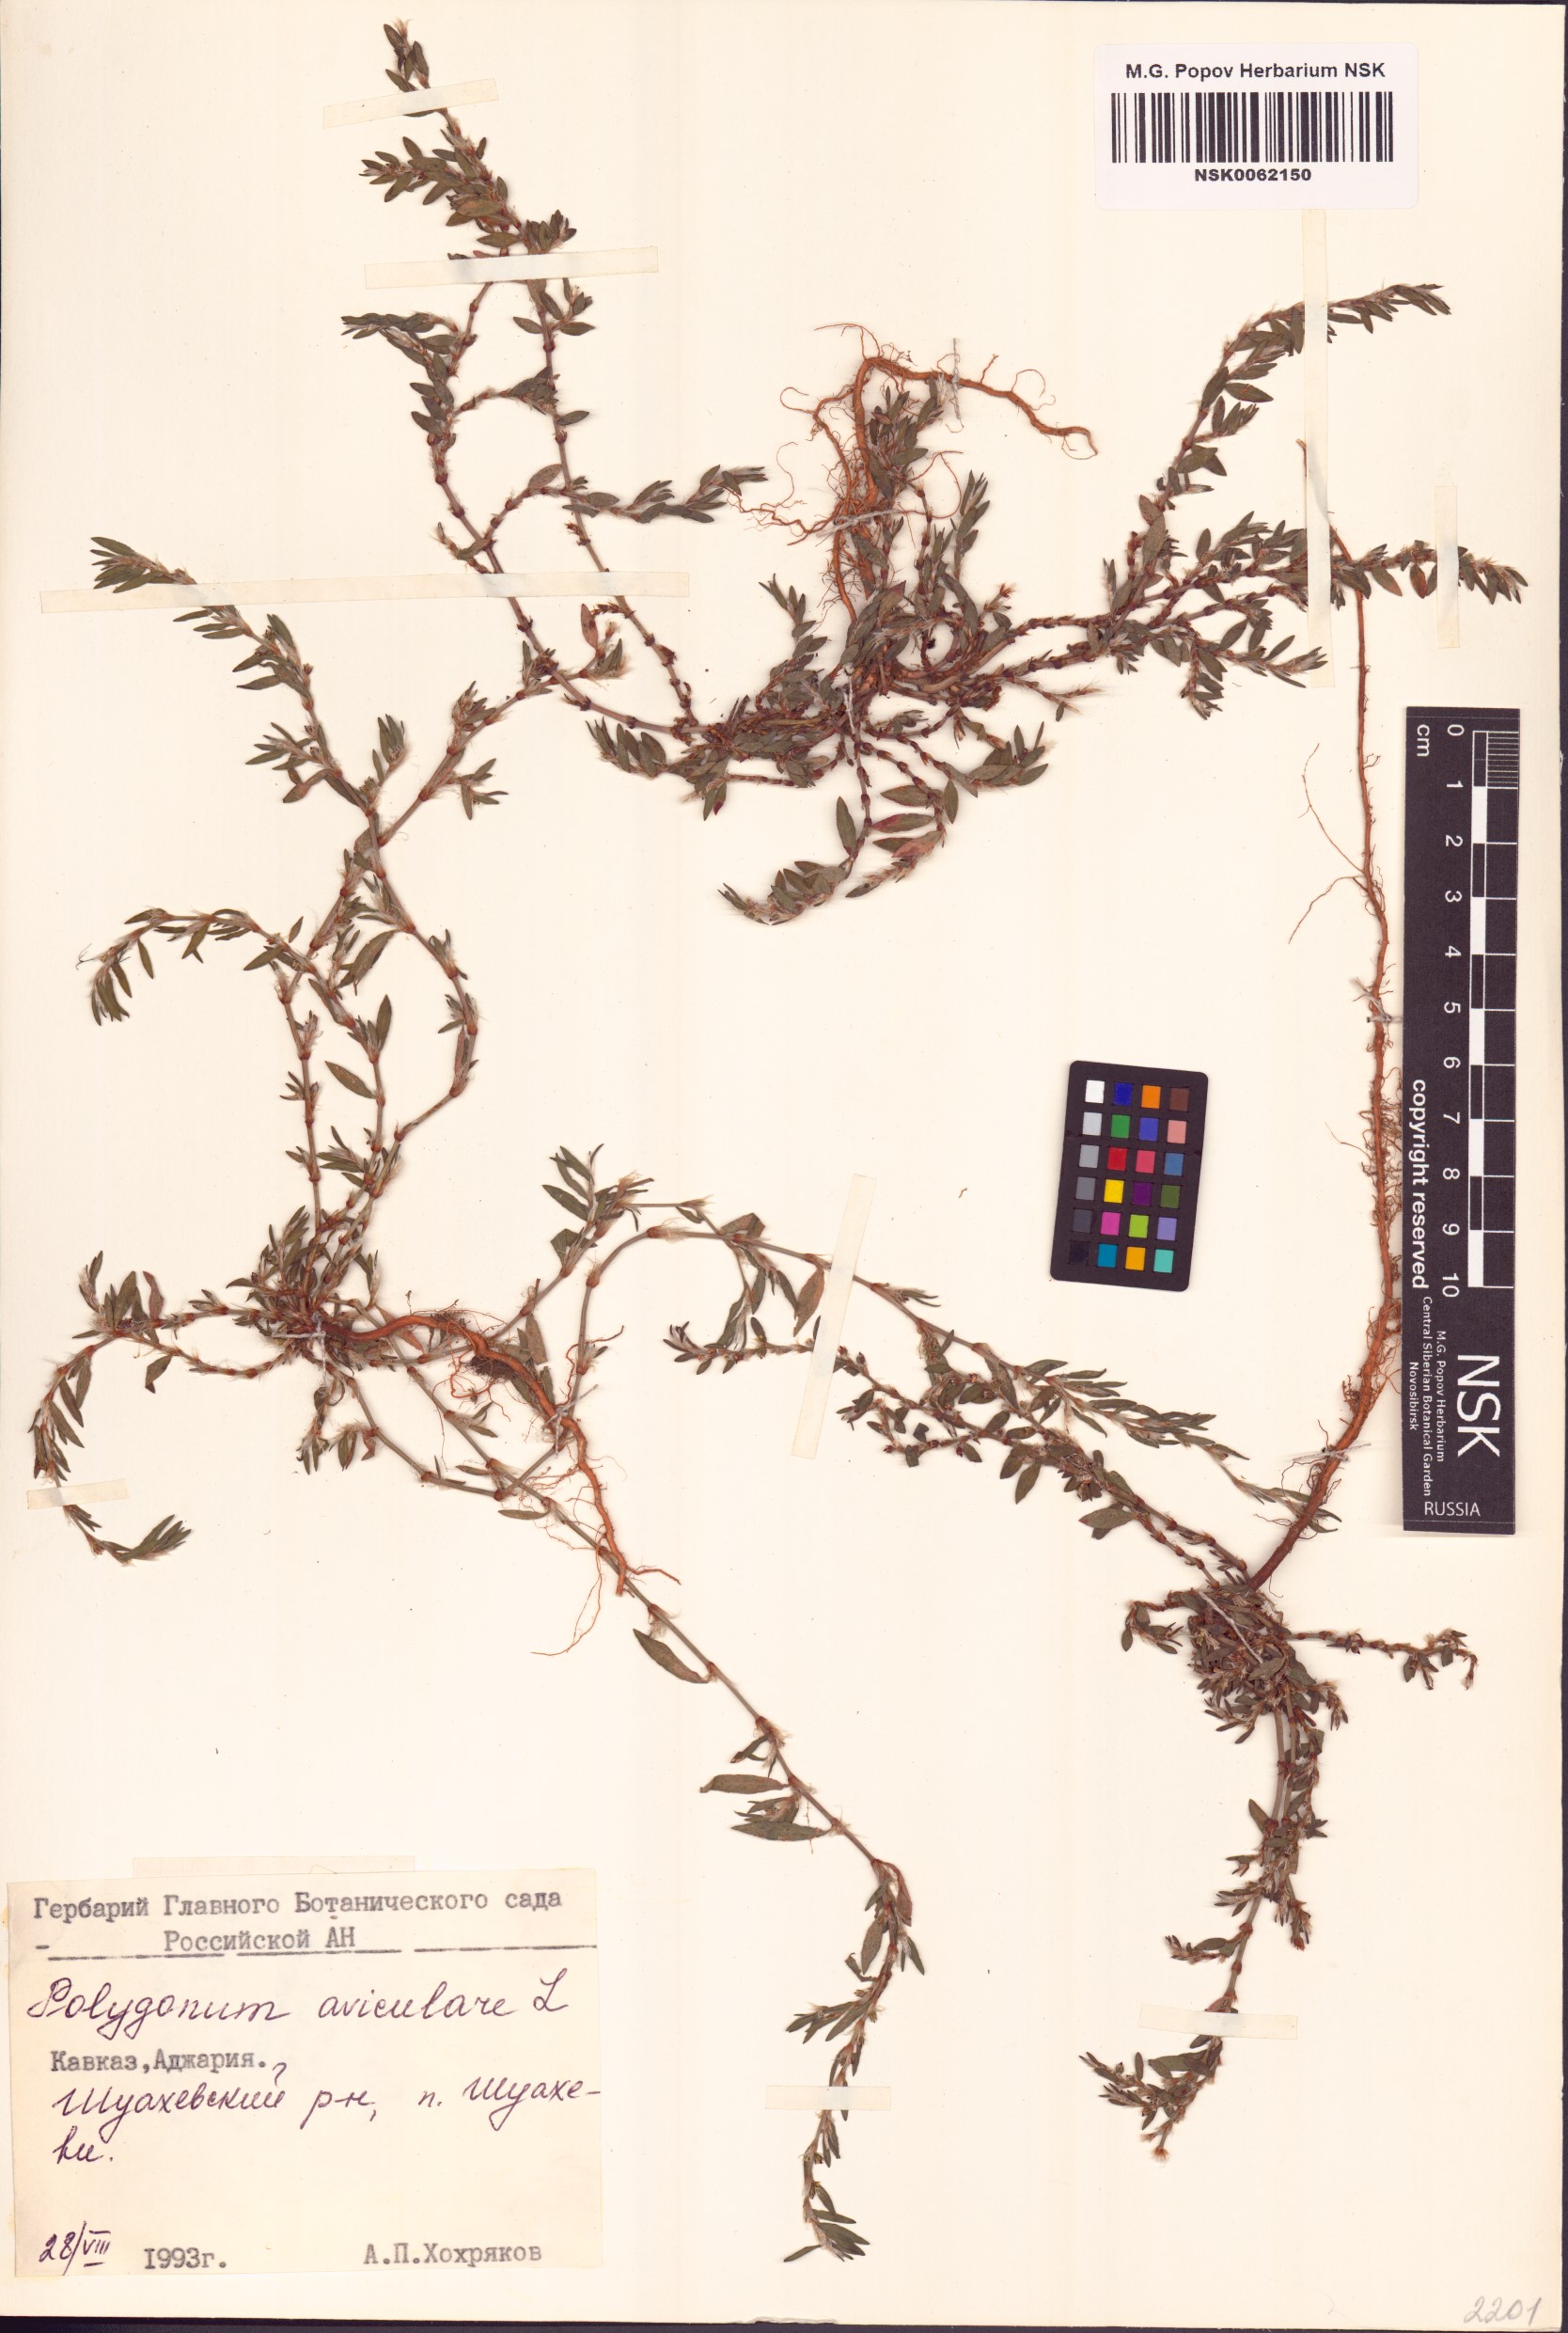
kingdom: Plantae
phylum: Tracheophyta
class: Magnoliopsida
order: Caryophyllales
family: Polygonaceae
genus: Polygonum
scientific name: Polygonum aviculare
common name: Prostrate knotweed
